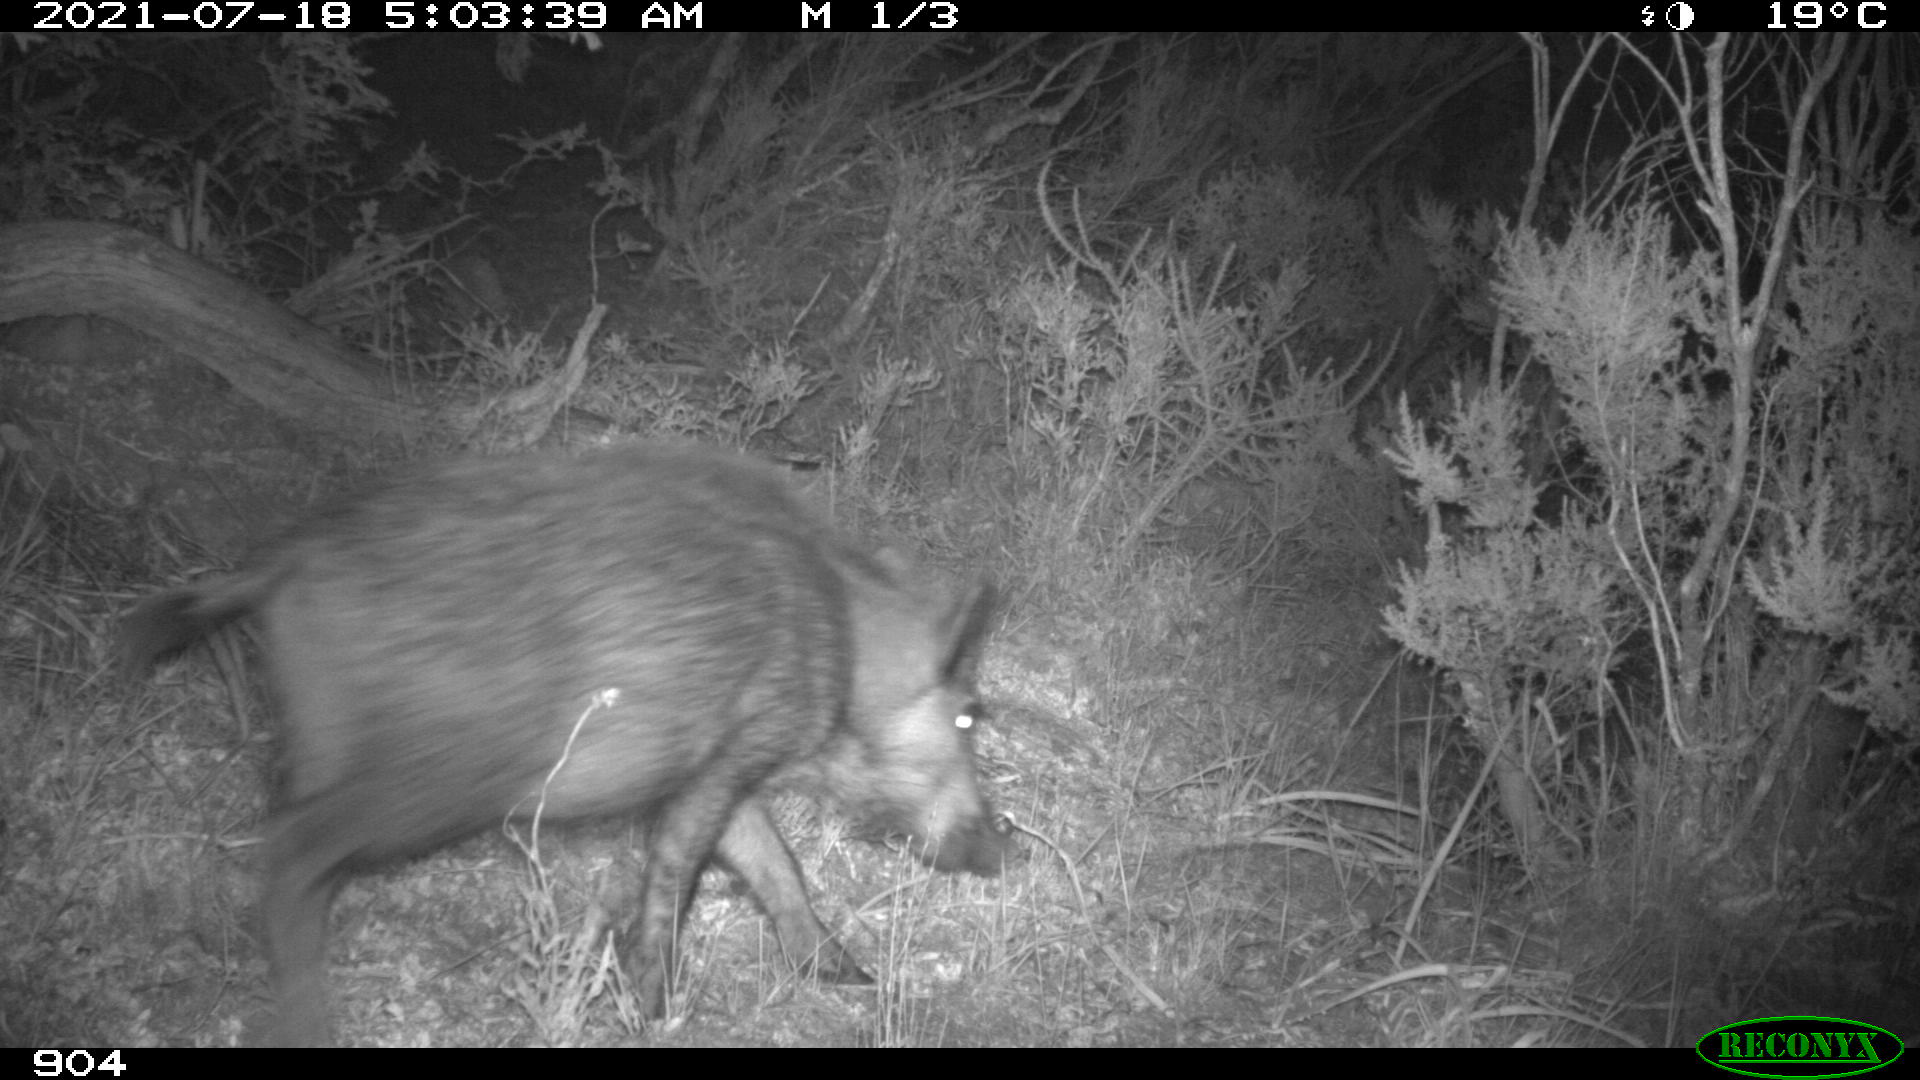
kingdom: Animalia
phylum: Chordata
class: Mammalia
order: Artiodactyla
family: Suidae
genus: Sus
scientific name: Sus scrofa
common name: Wild boar
